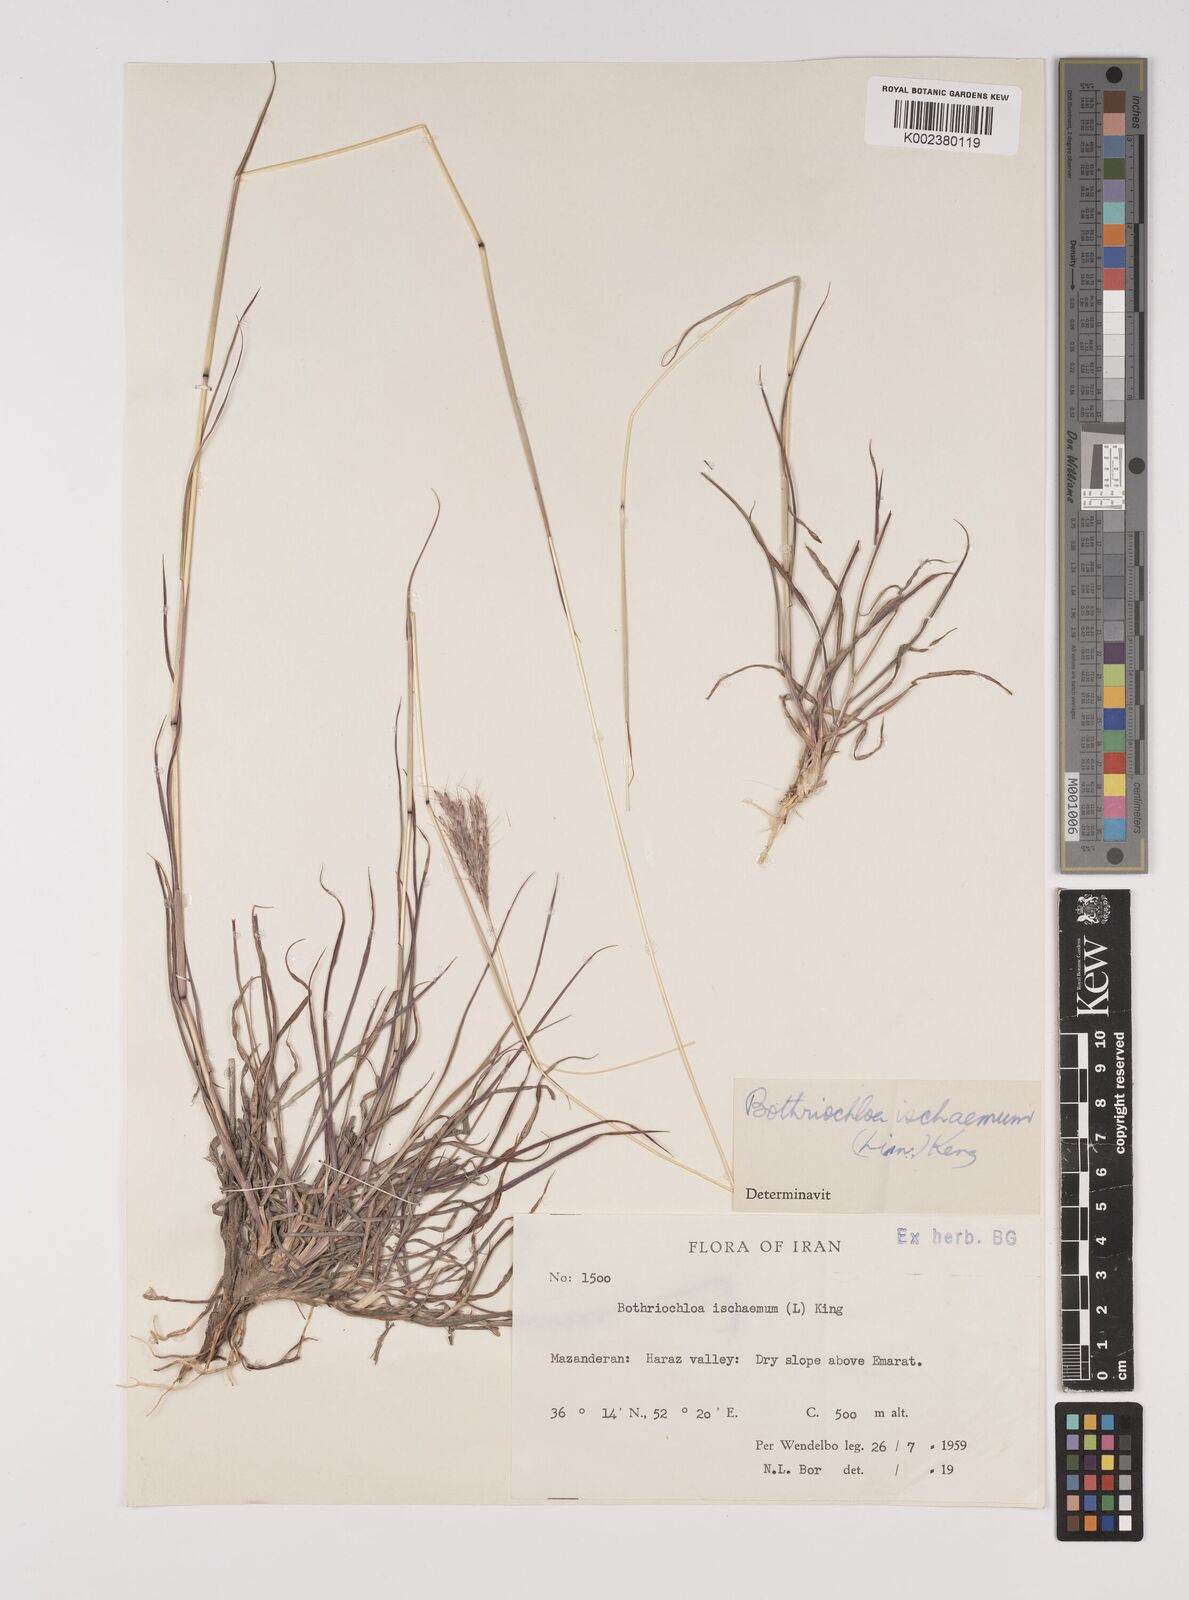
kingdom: Plantae
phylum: Tracheophyta
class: Liliopsida
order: Poales
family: Poaceae
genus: Bothriochloa
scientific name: Bothriochloa ischaemum
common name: Yellow bluestem
